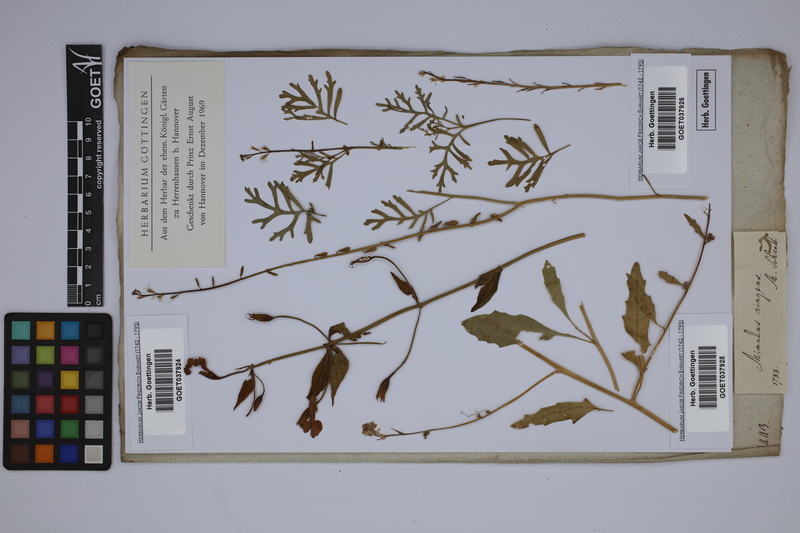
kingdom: Plantae
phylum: Tracheophyta
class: Magnoliopsida
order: Lamiales
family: Phrymaceae
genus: Mimulus
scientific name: Mimulus ringens
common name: Allegheny monkeyflower
